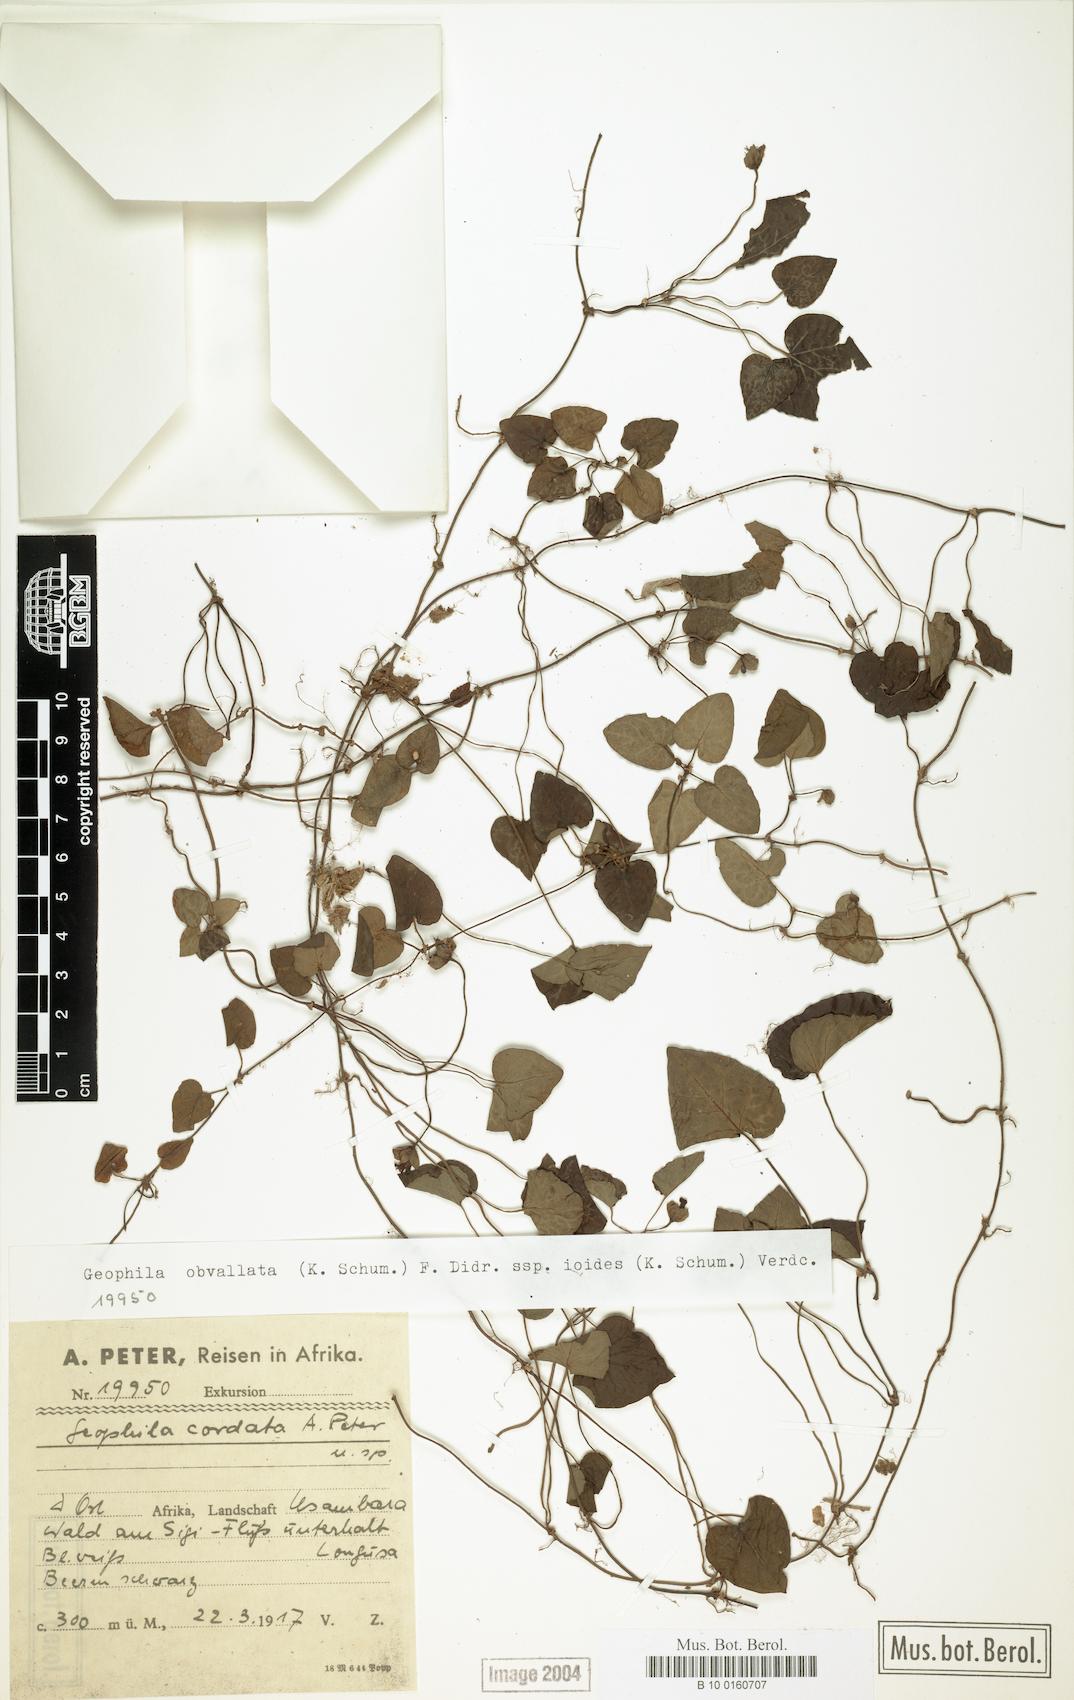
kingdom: Plantae
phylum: Tracheophyta
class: Magnoliopsida
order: Gentianales
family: Rubiaceae
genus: Geophila
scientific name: Geophila obvallata
